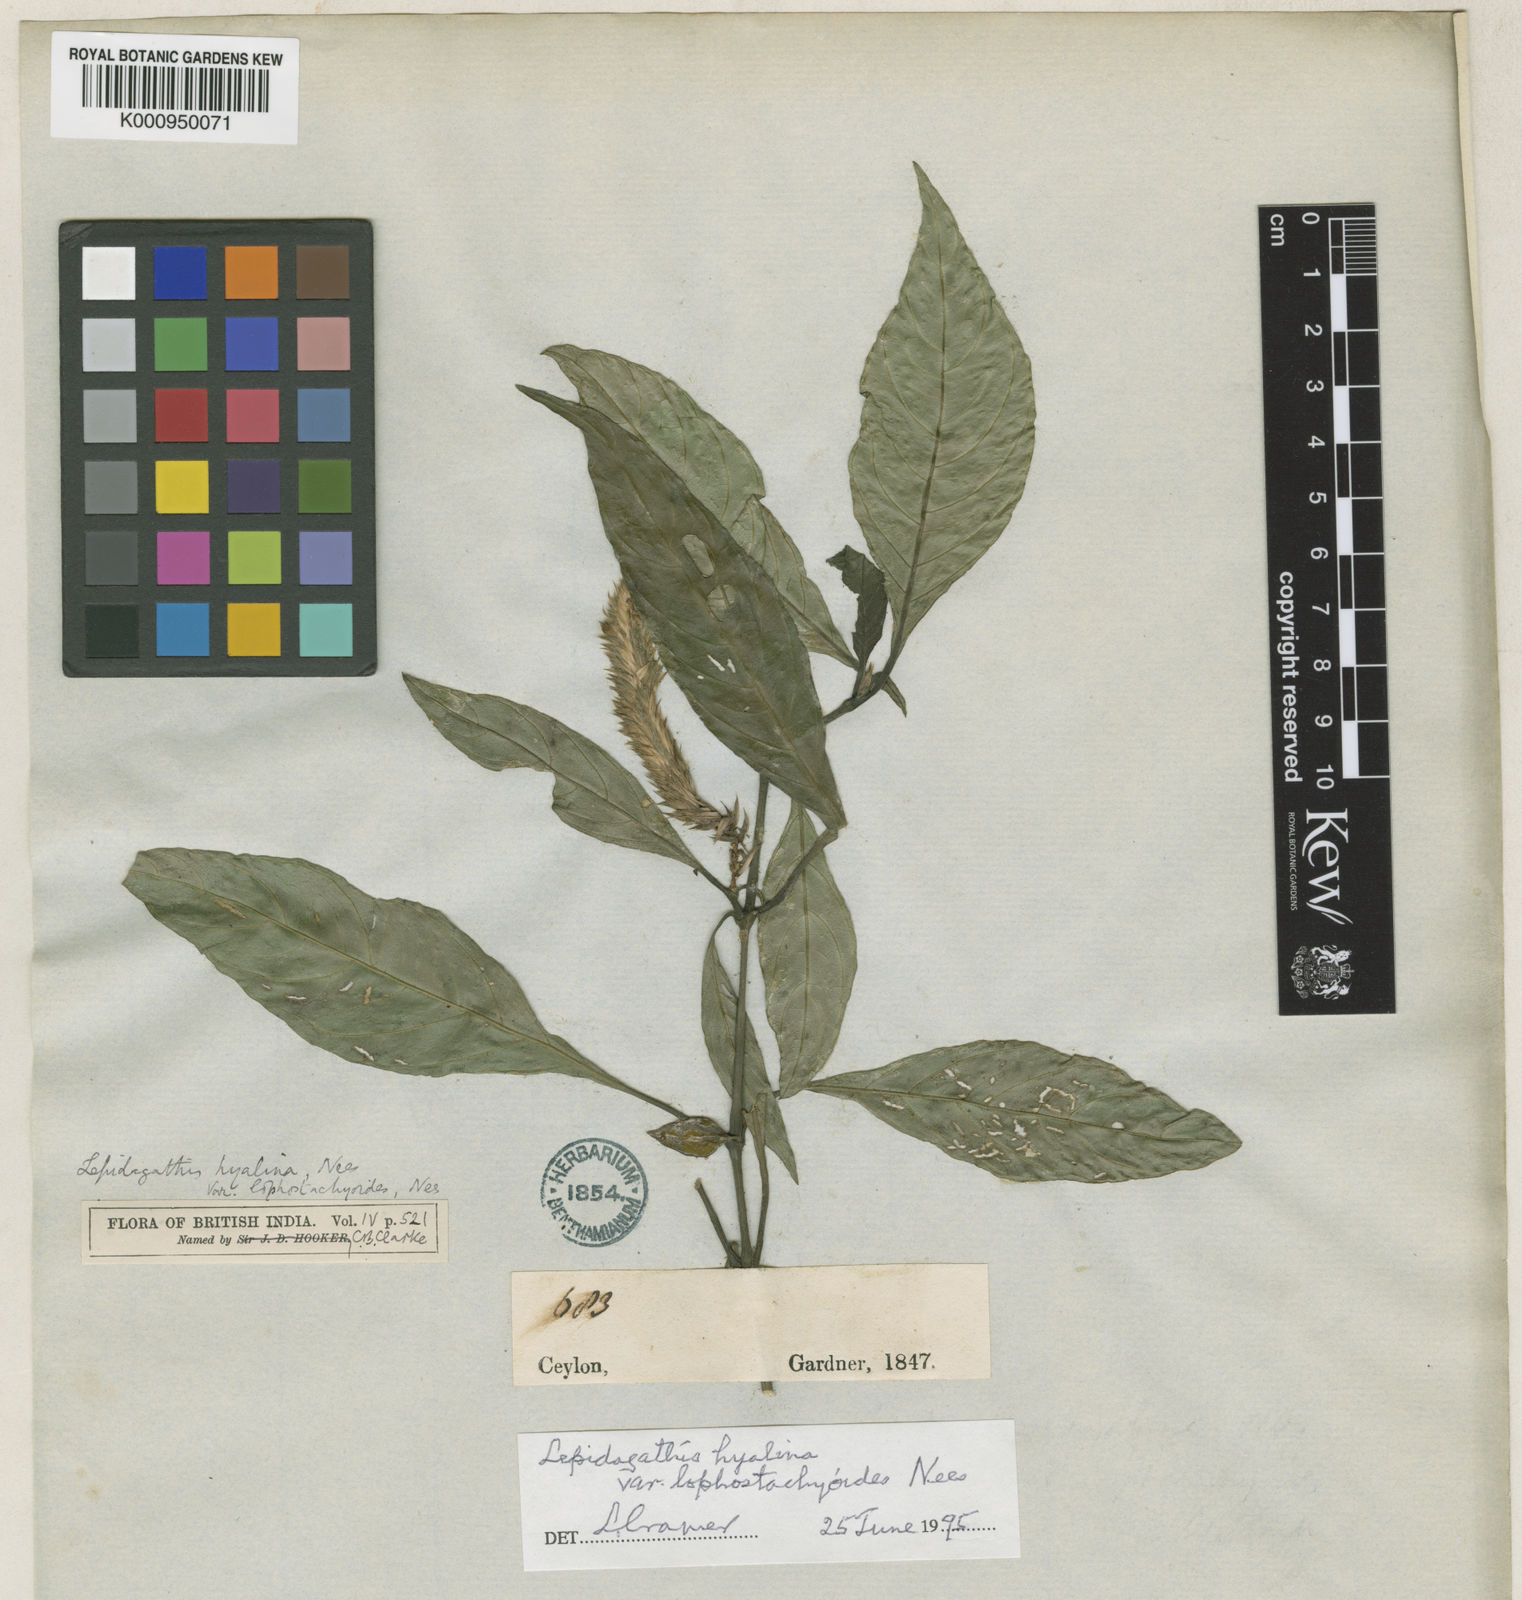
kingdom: Plantae
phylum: Tracheophyta
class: Magnoliopsida
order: Lamiales
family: Acanthaceae
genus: Lepidagathis
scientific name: Lepidagathis incurva
